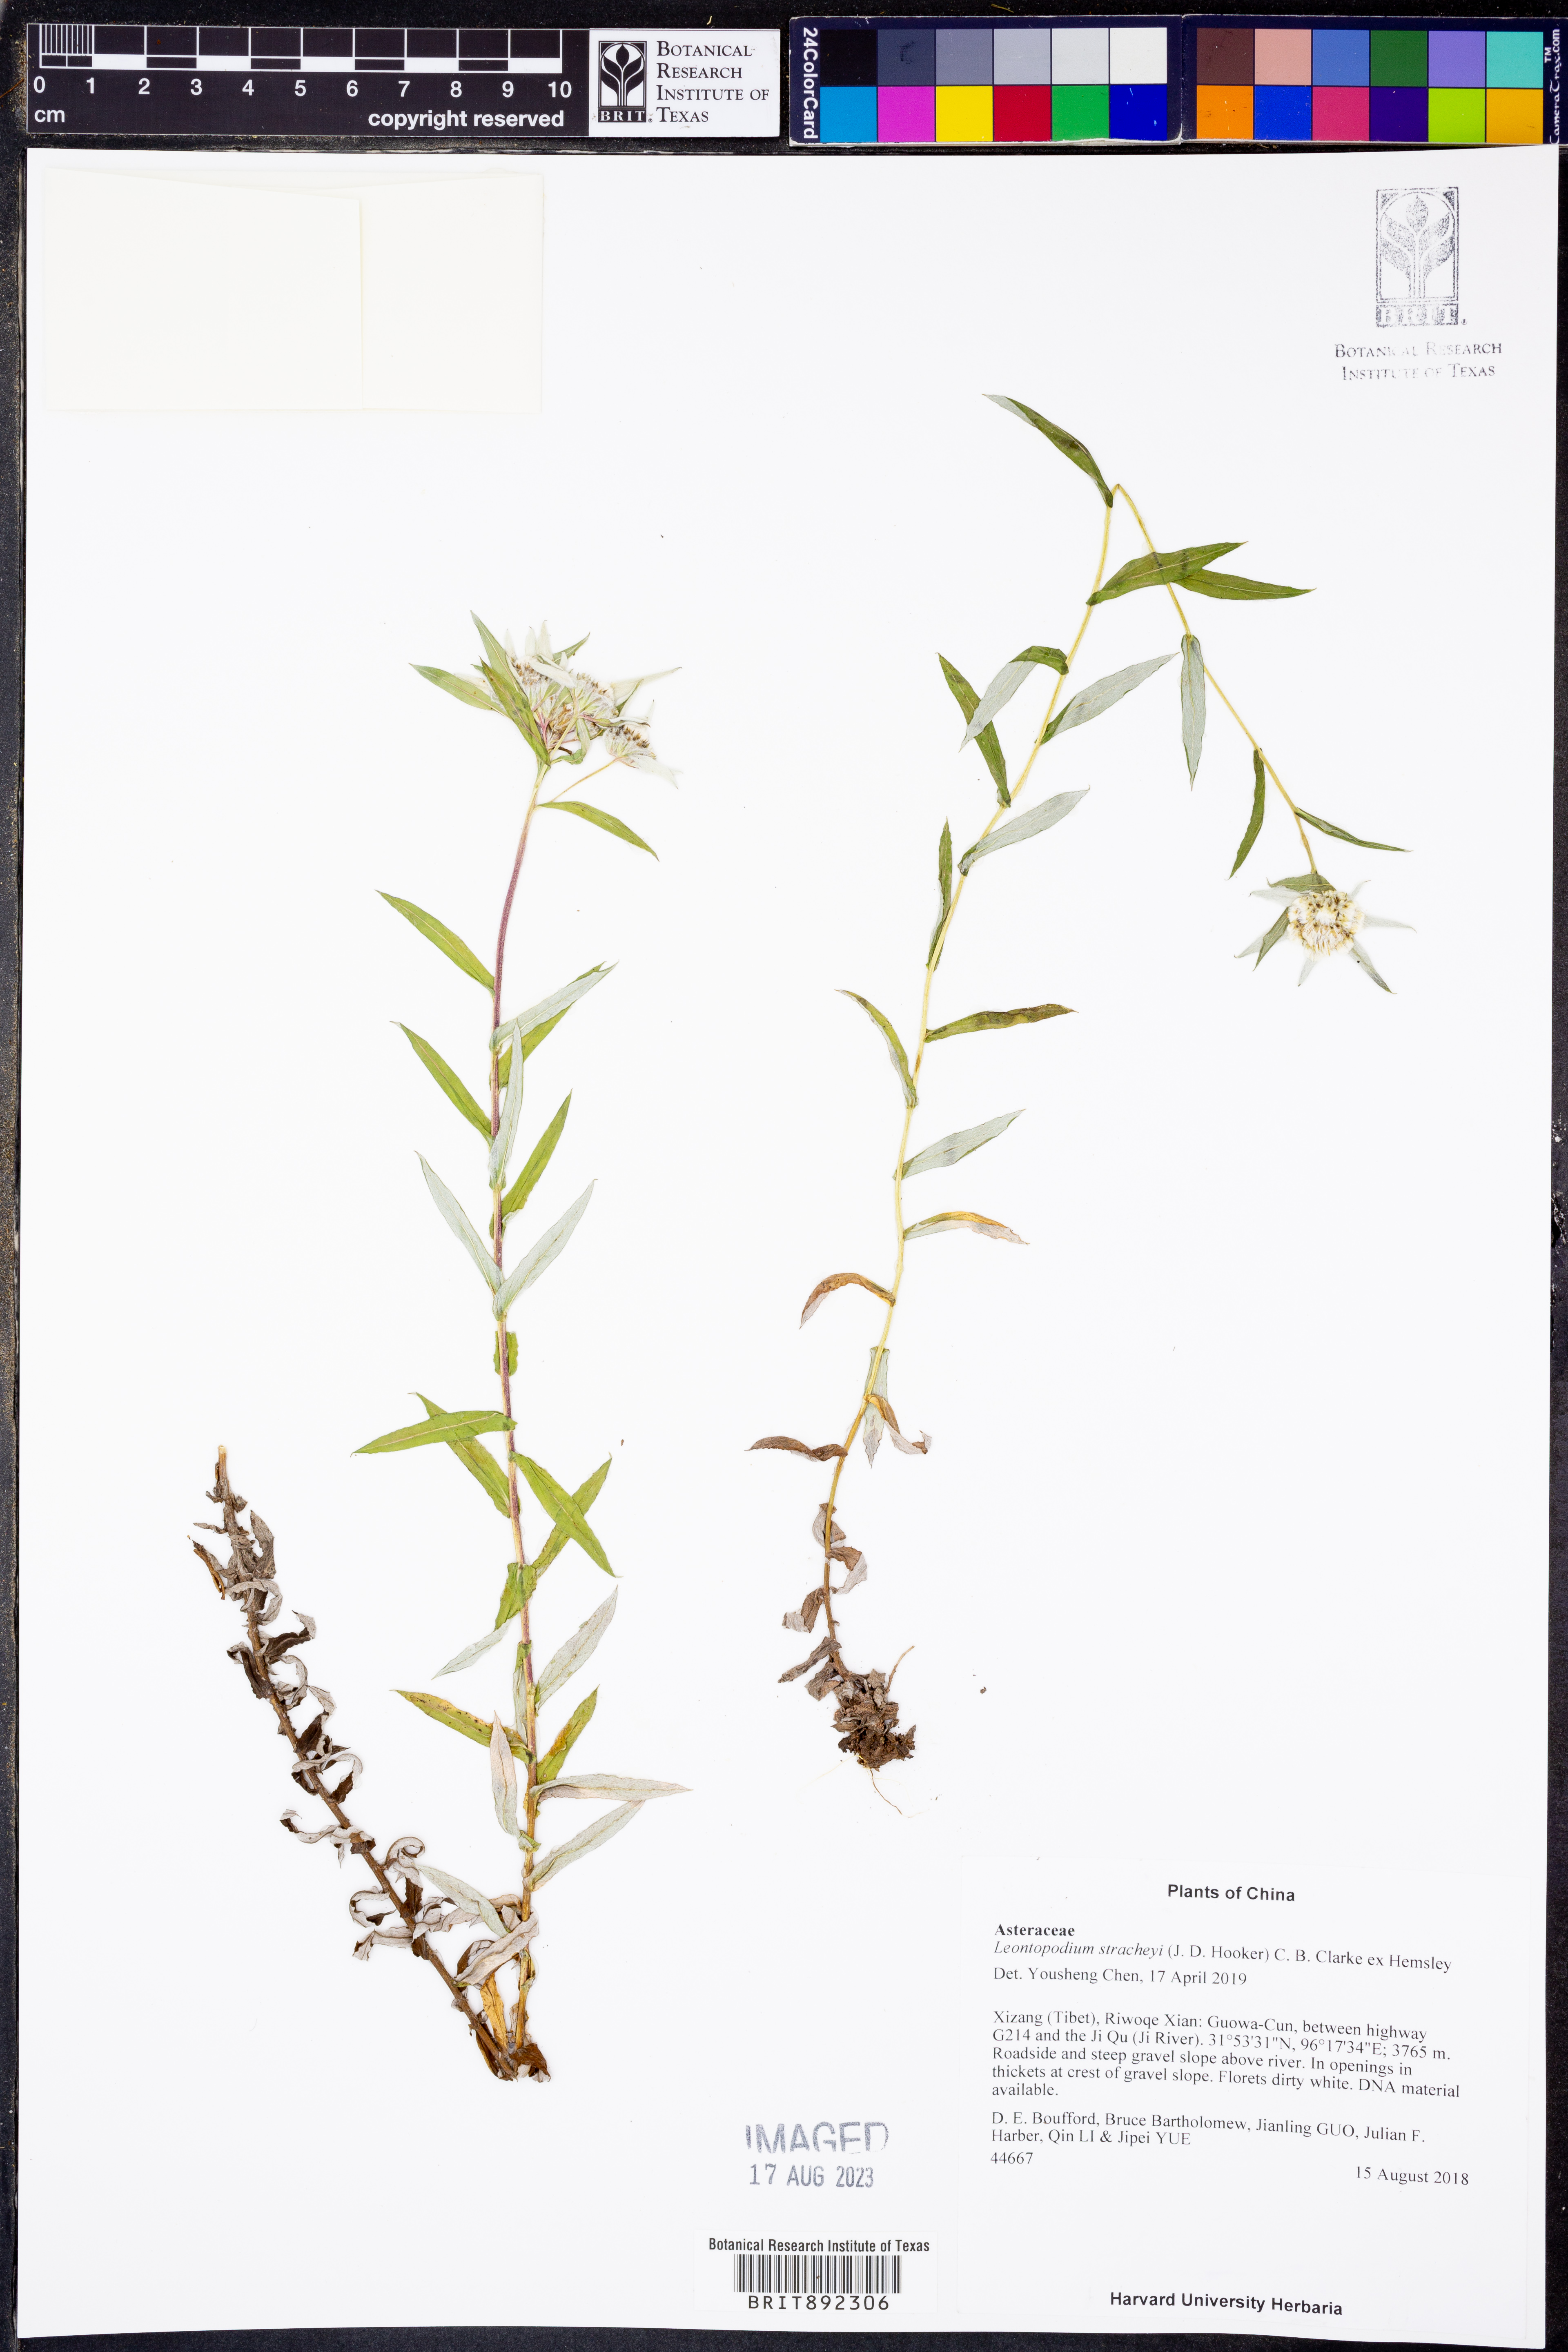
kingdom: Plantae
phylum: Tracheophyta
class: Magnoliopsida
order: Asterales
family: Asteraceae
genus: Leontopodium
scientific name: Leontopodium stracheyi
